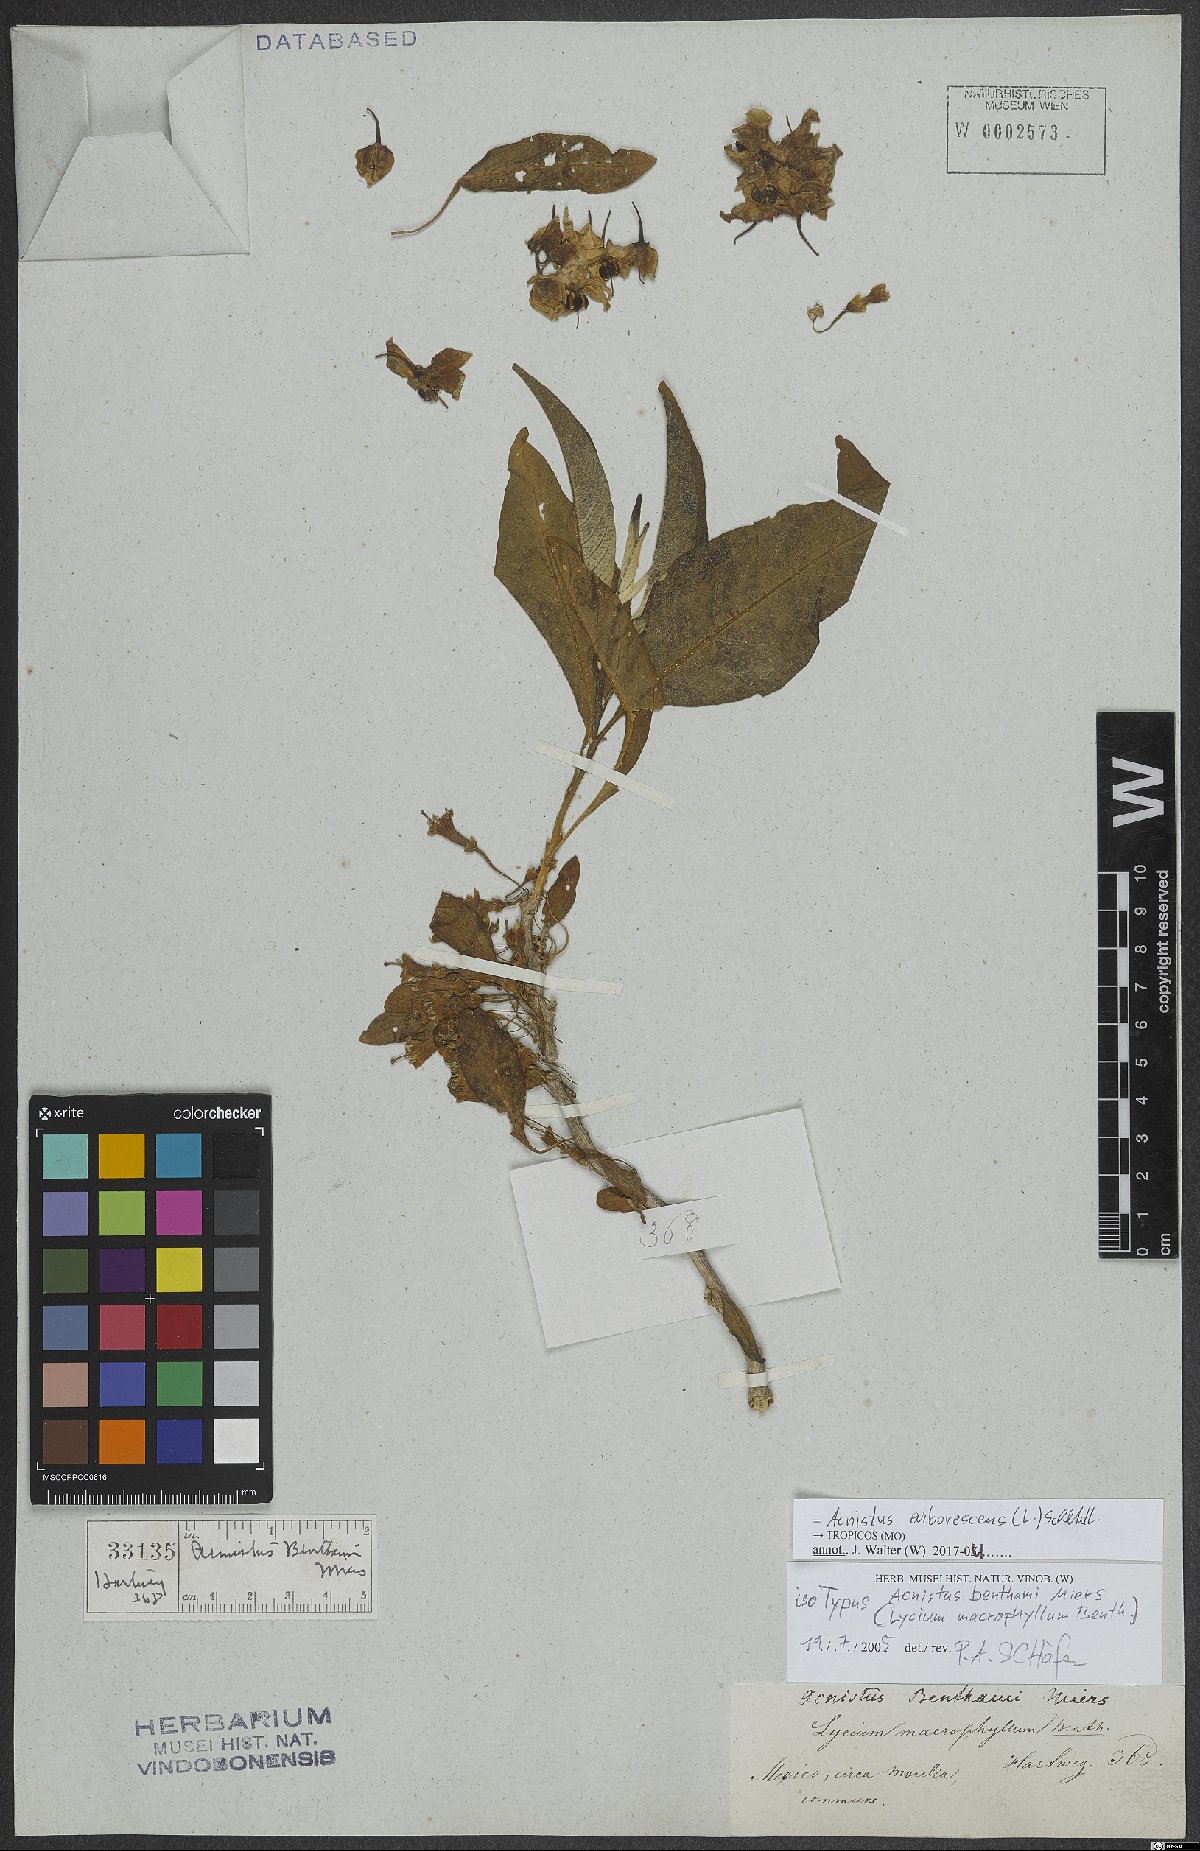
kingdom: Plantae
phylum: Tracheophyta
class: Magnoliopsida
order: Solanales
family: Solanaceae
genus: Iochroma
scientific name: Iochroma arborescens
